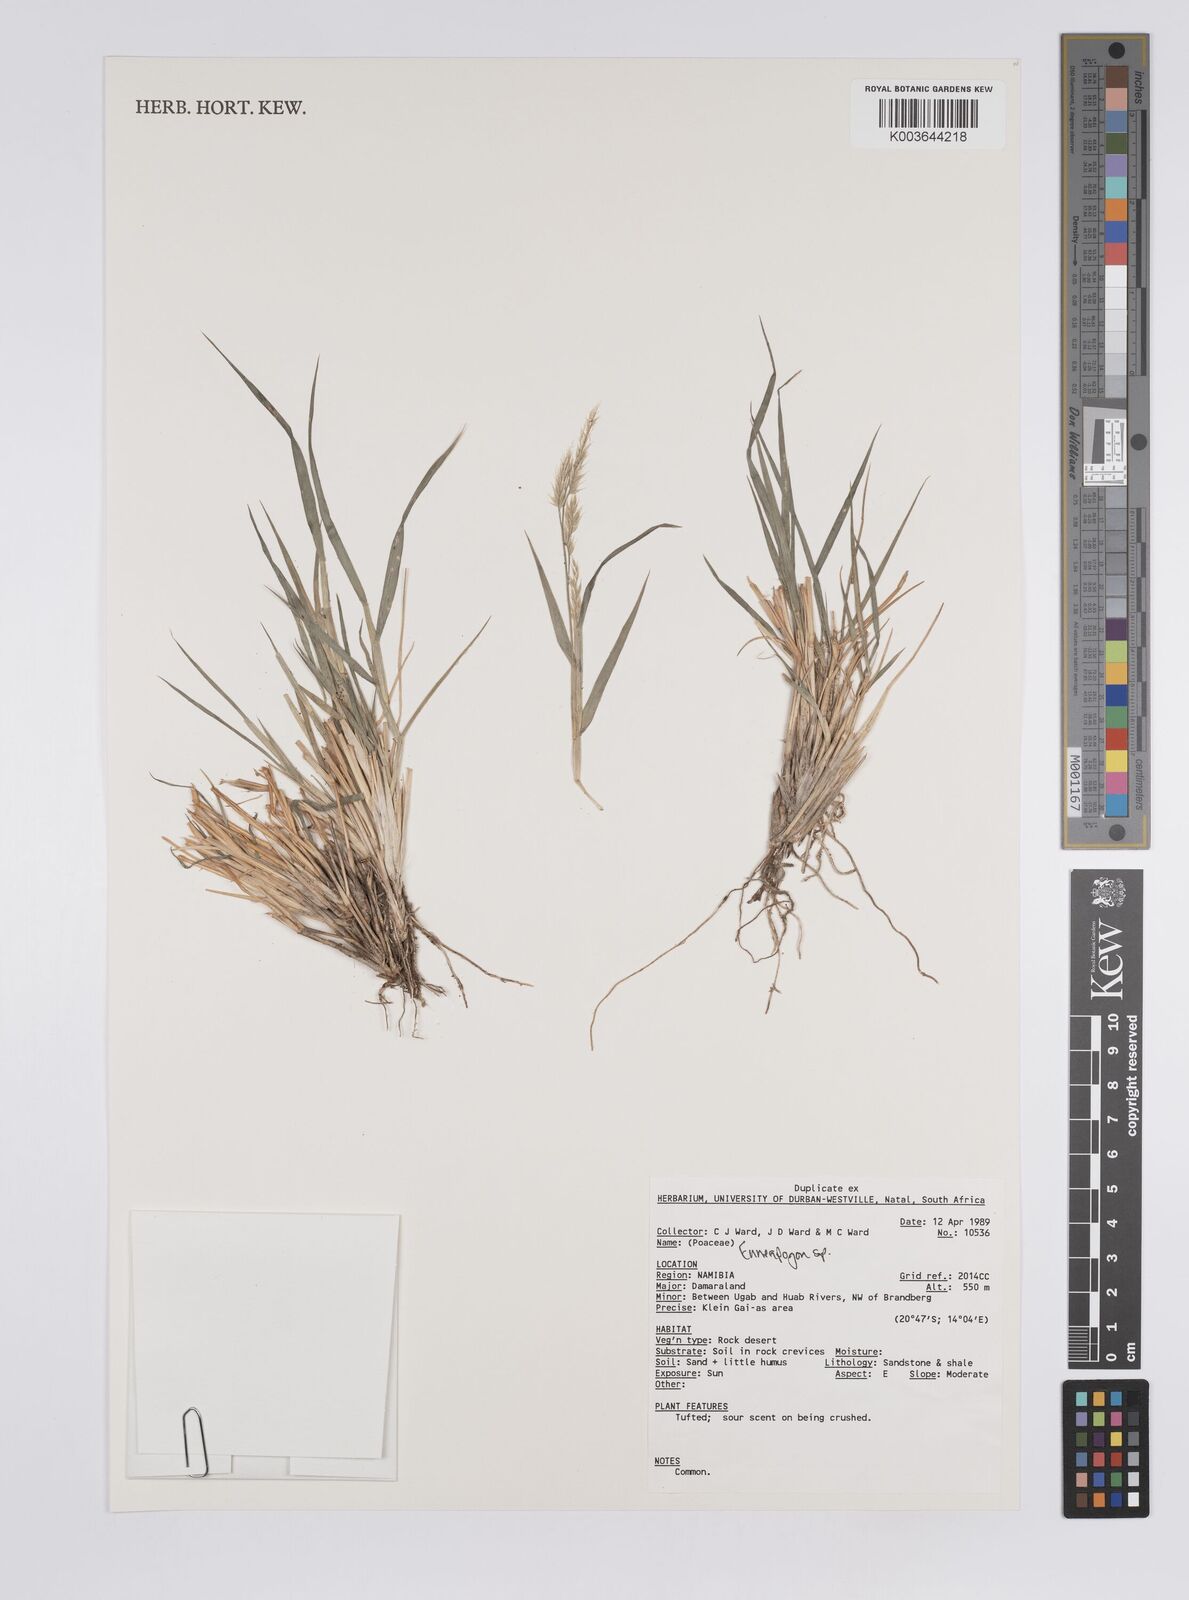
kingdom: Plantae
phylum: Tracheophyta
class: Liliopsida
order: Poales
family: Poaceae
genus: Enneapogon
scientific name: Enneapogon
